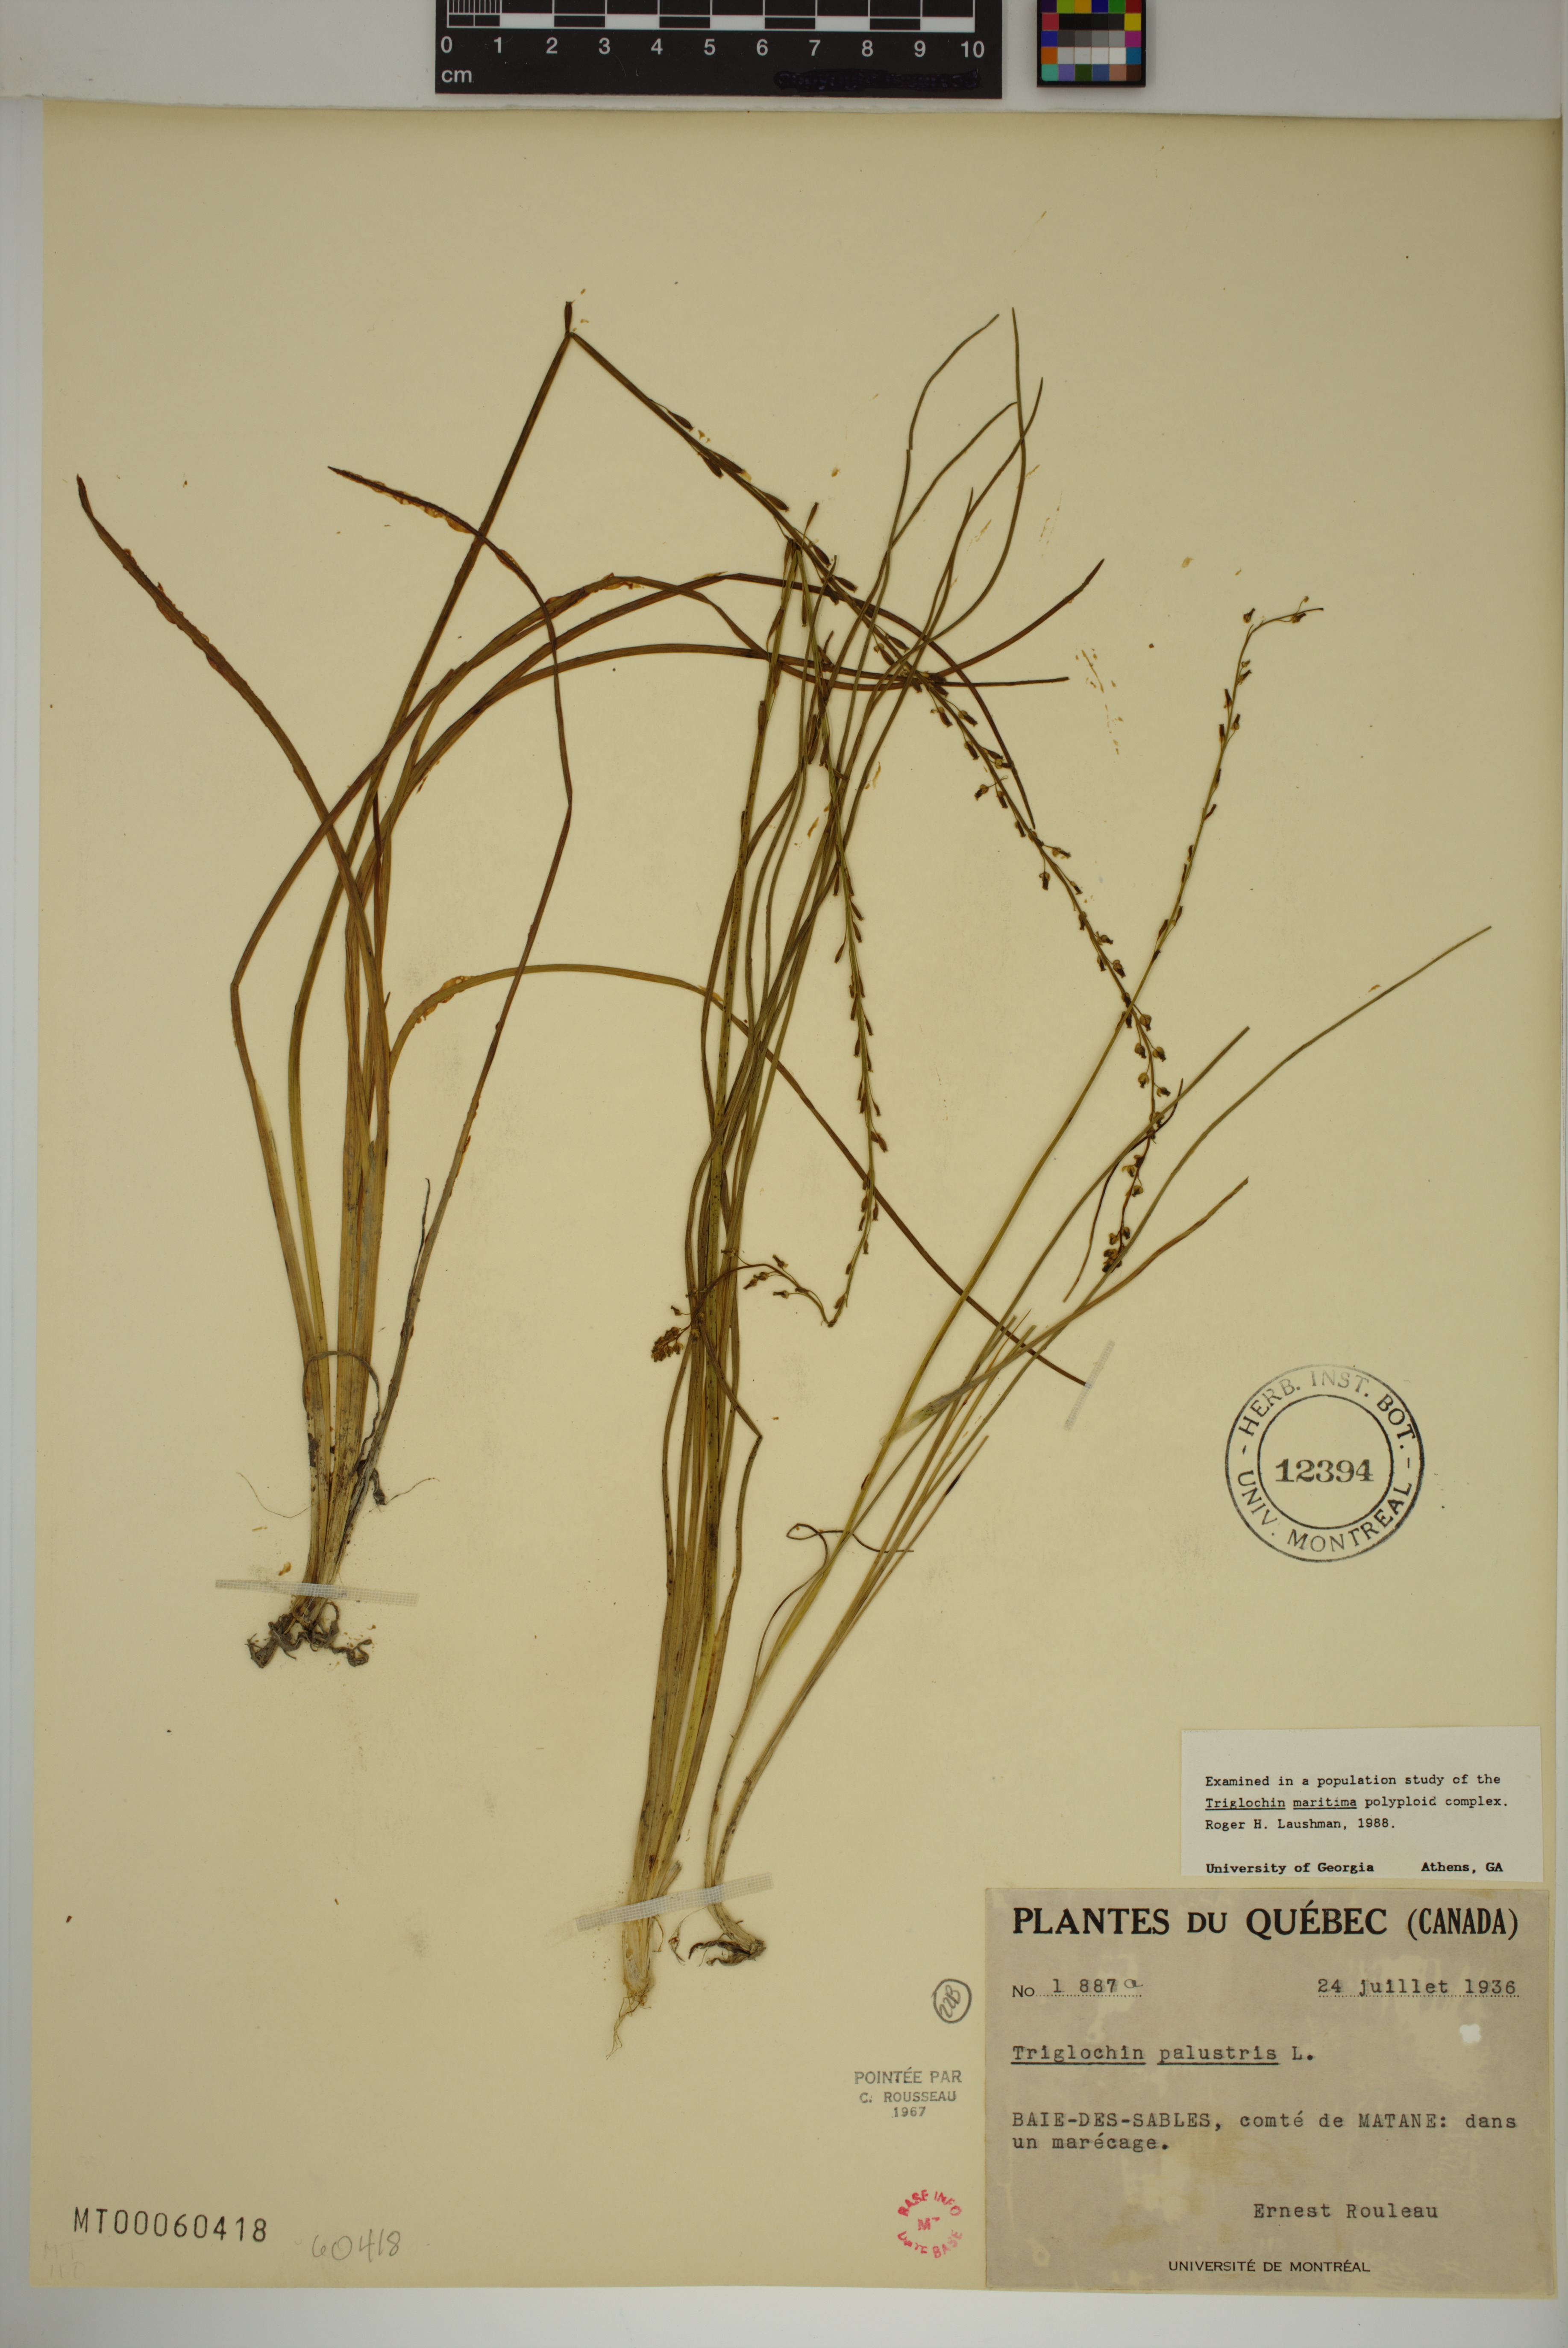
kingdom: Plantae
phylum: Tracheophyta
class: Liliopsida
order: Alismatales
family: Juncaginaceae
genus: Triglochin
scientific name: Triglochin palustris
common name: Marsh arrowgrass
